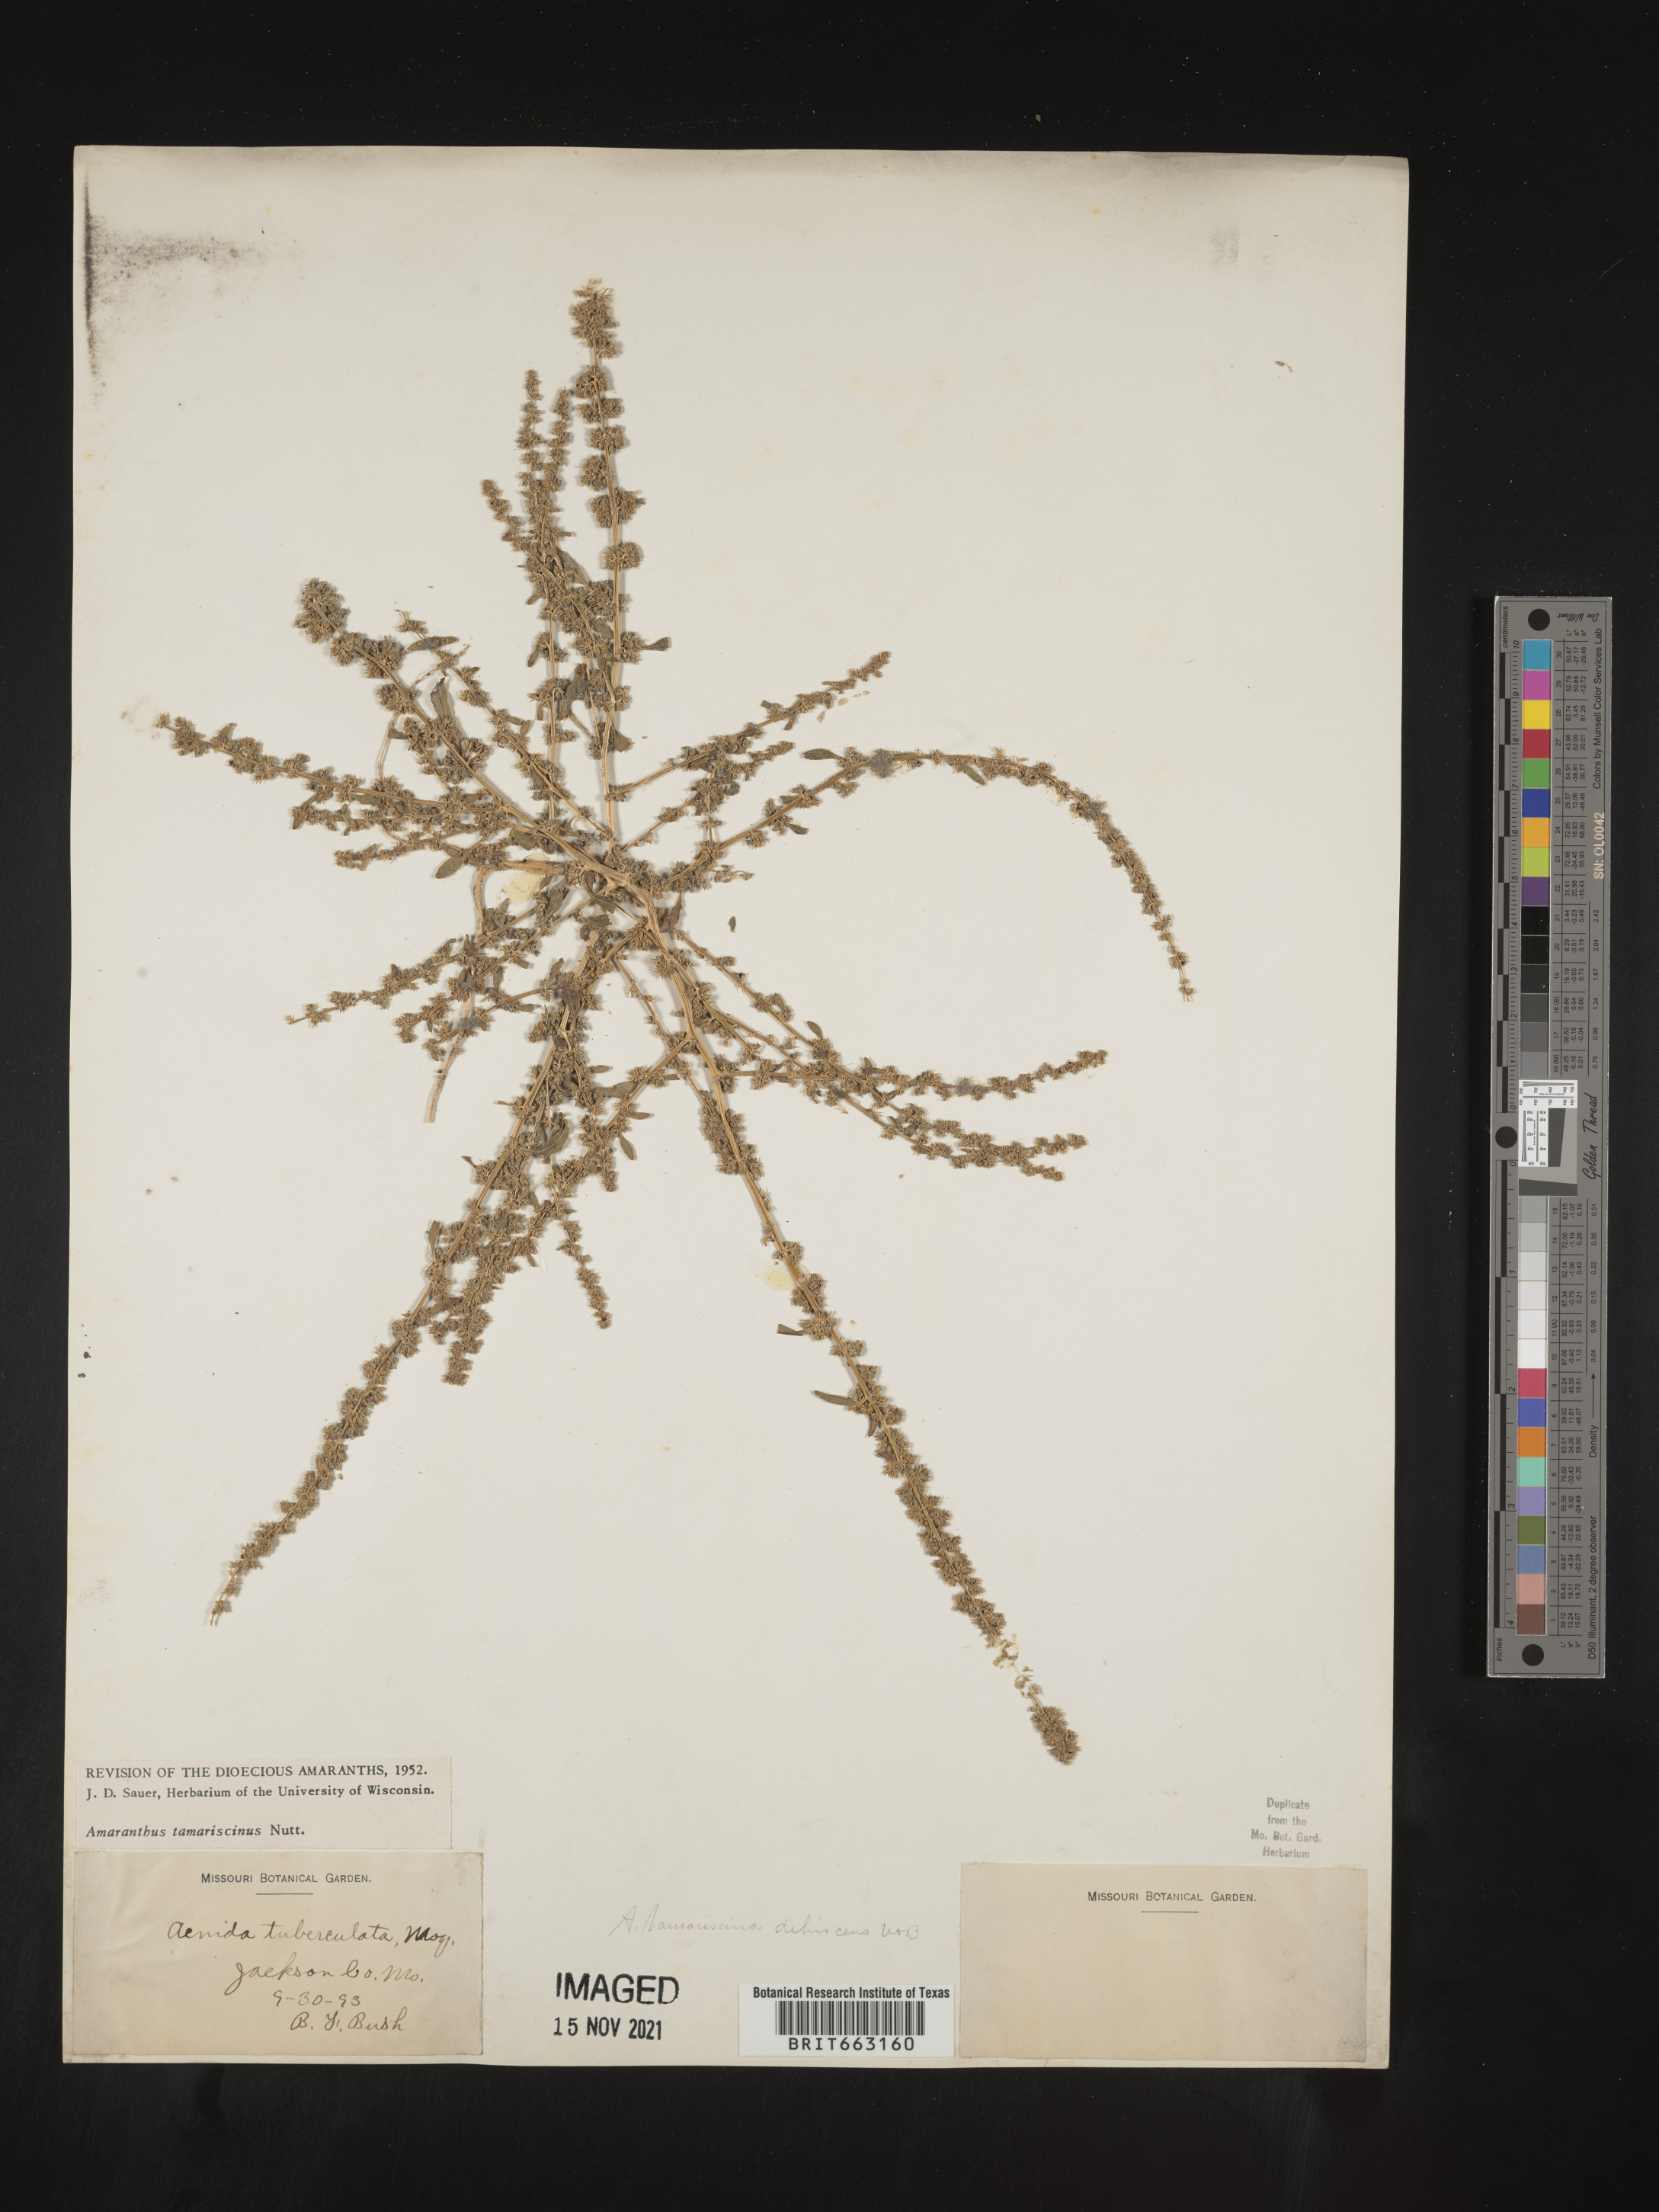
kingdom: Plantae
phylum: Tracheophyta
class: Magnoliopsida
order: Caryophyllales
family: Amaranthaceae
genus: Amaranthus
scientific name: Amaranthus tamariscinus
